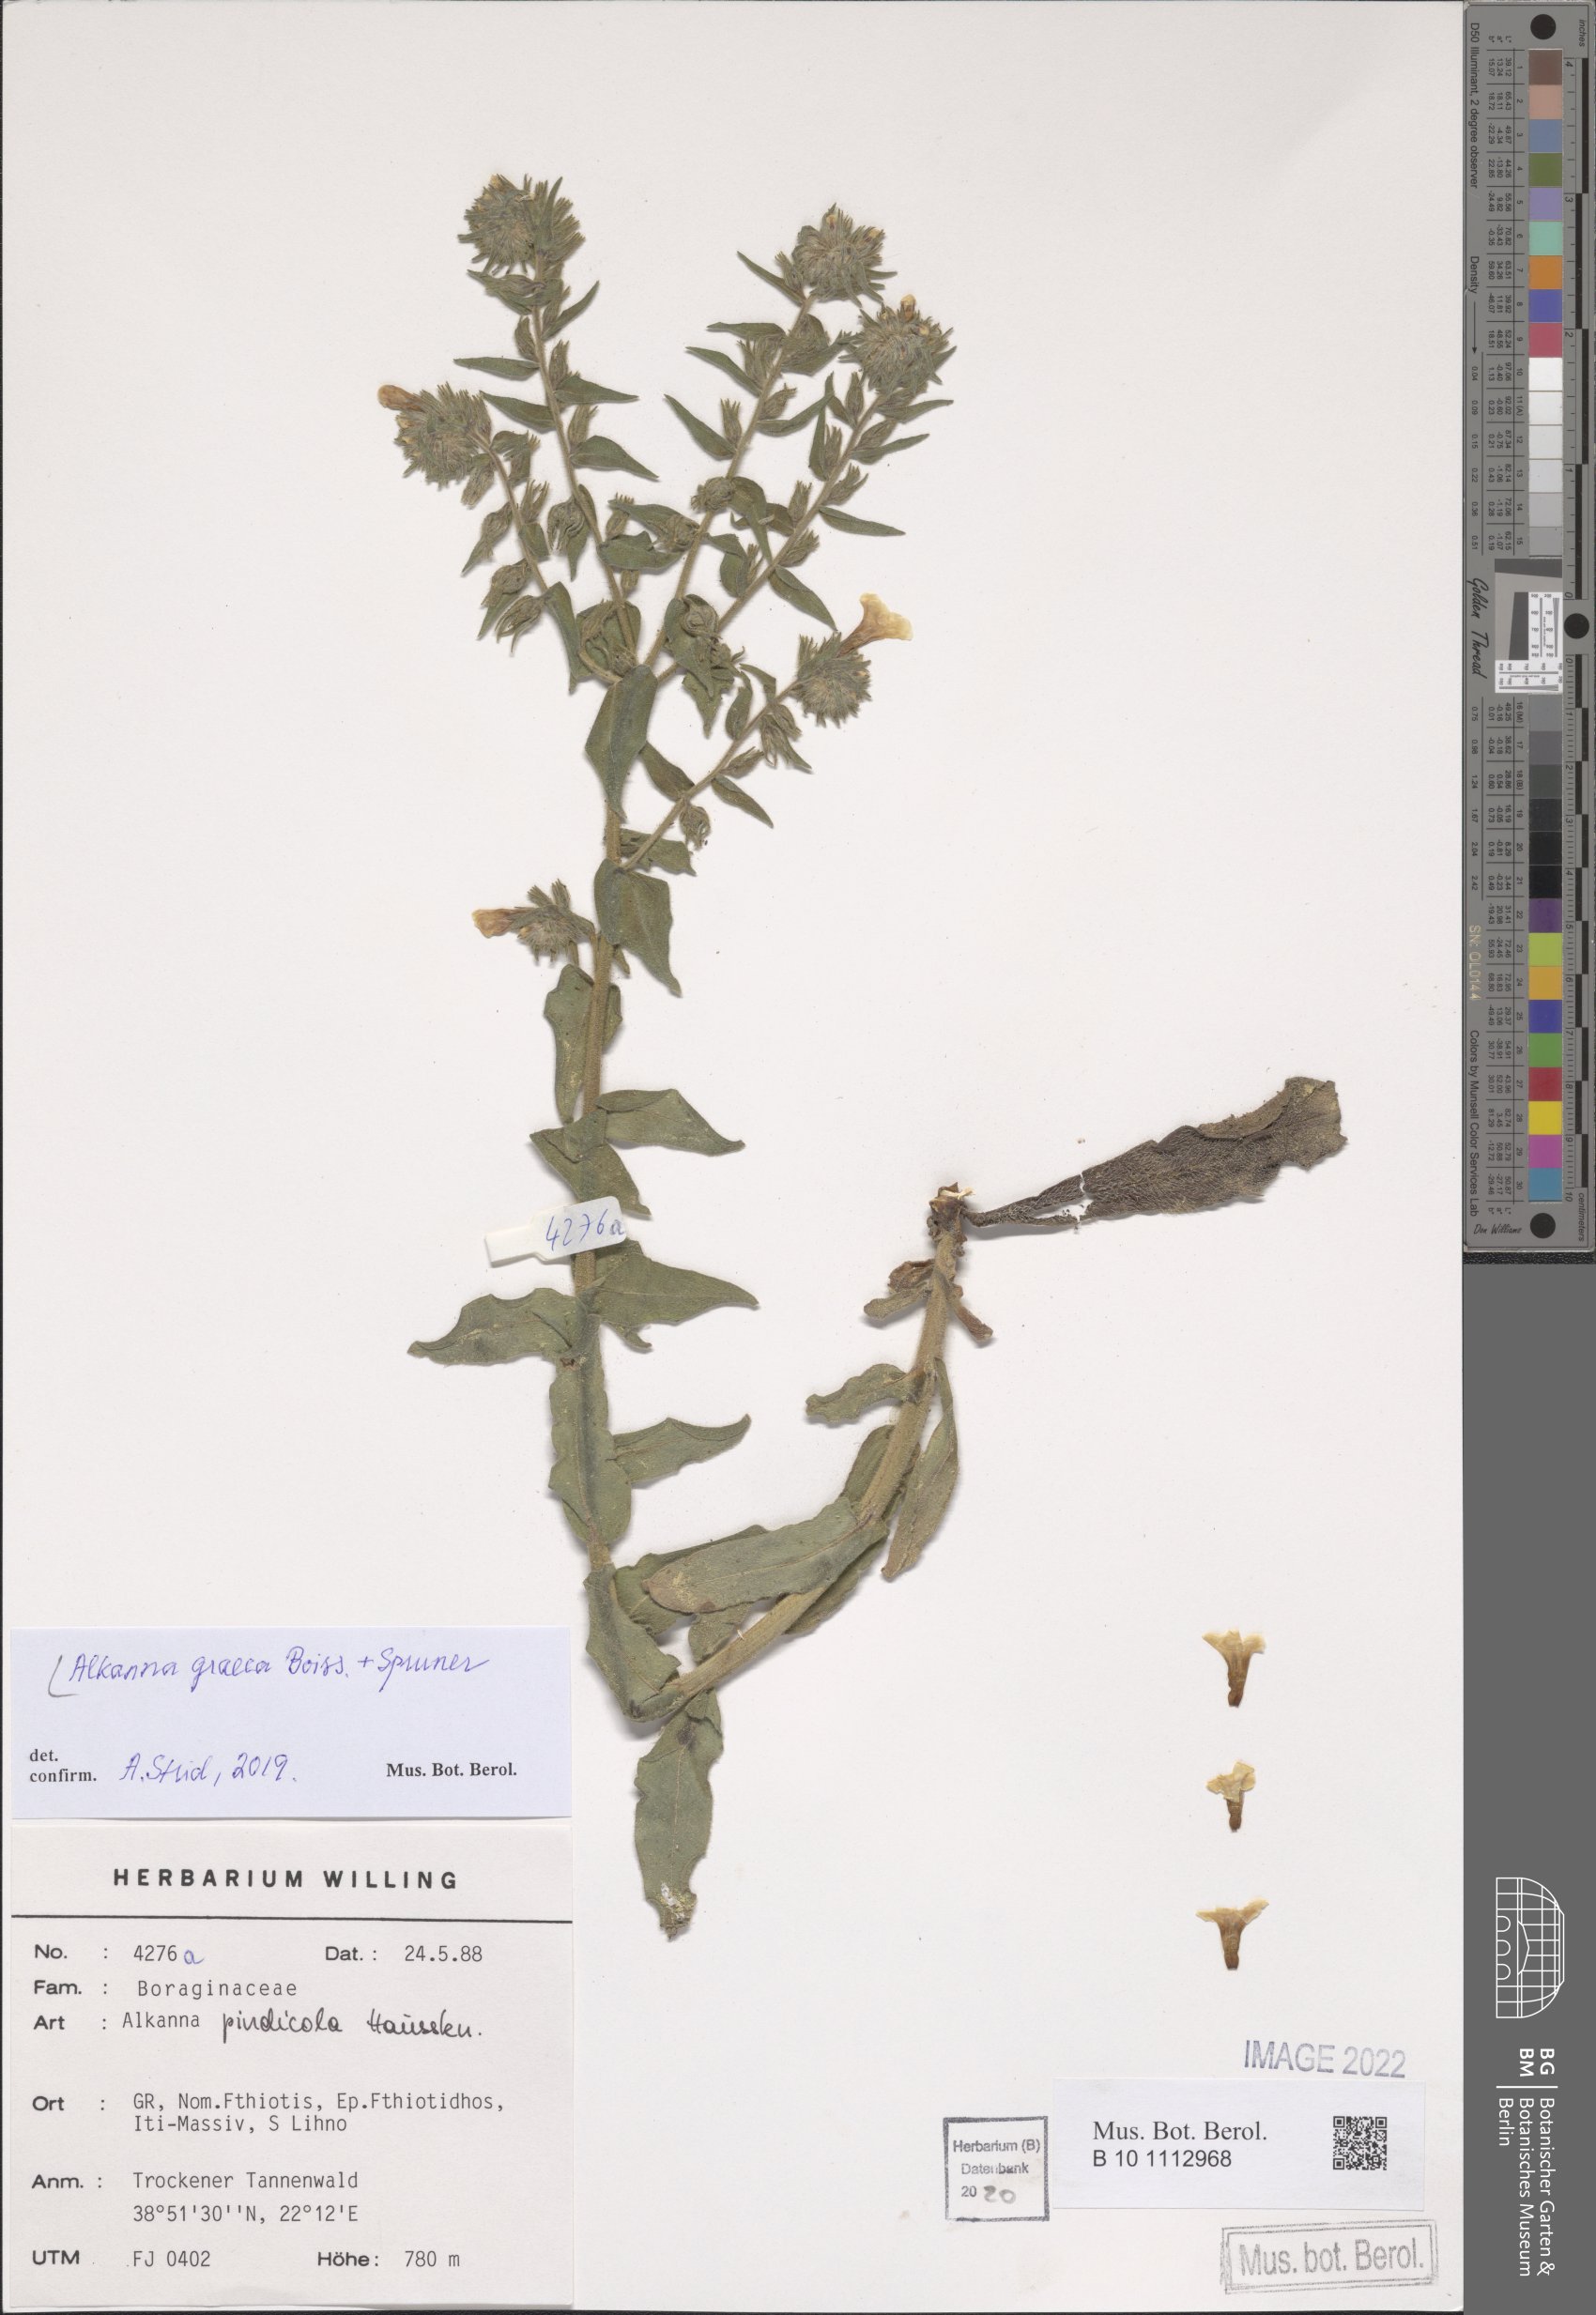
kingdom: Plantae
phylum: Tracheophyta
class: Magnoliopsida
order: Boraginales
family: Boraginaceae
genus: Alkanna
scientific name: Alkanna graeca
